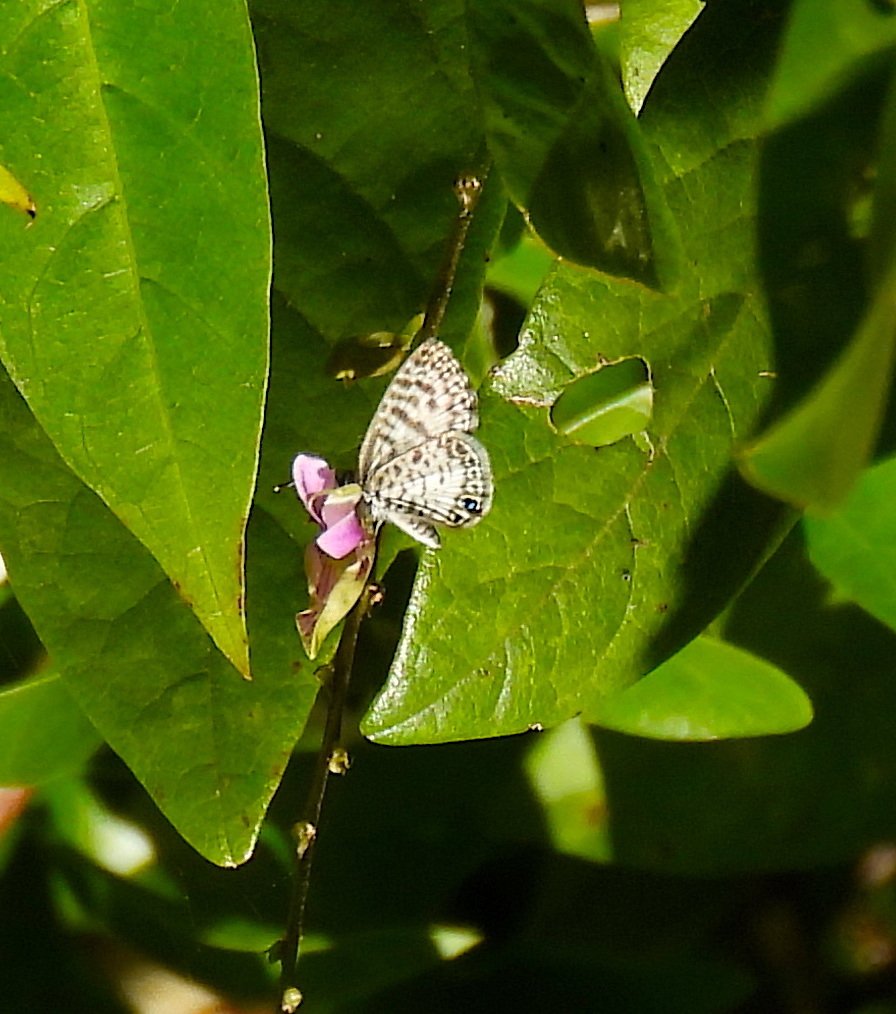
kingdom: Animalia
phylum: Arthropoda
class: Insecta
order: Lepidoptera
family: Lycaenidae
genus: Leptotes
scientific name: Leptotes cassius
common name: Cassius Blue
